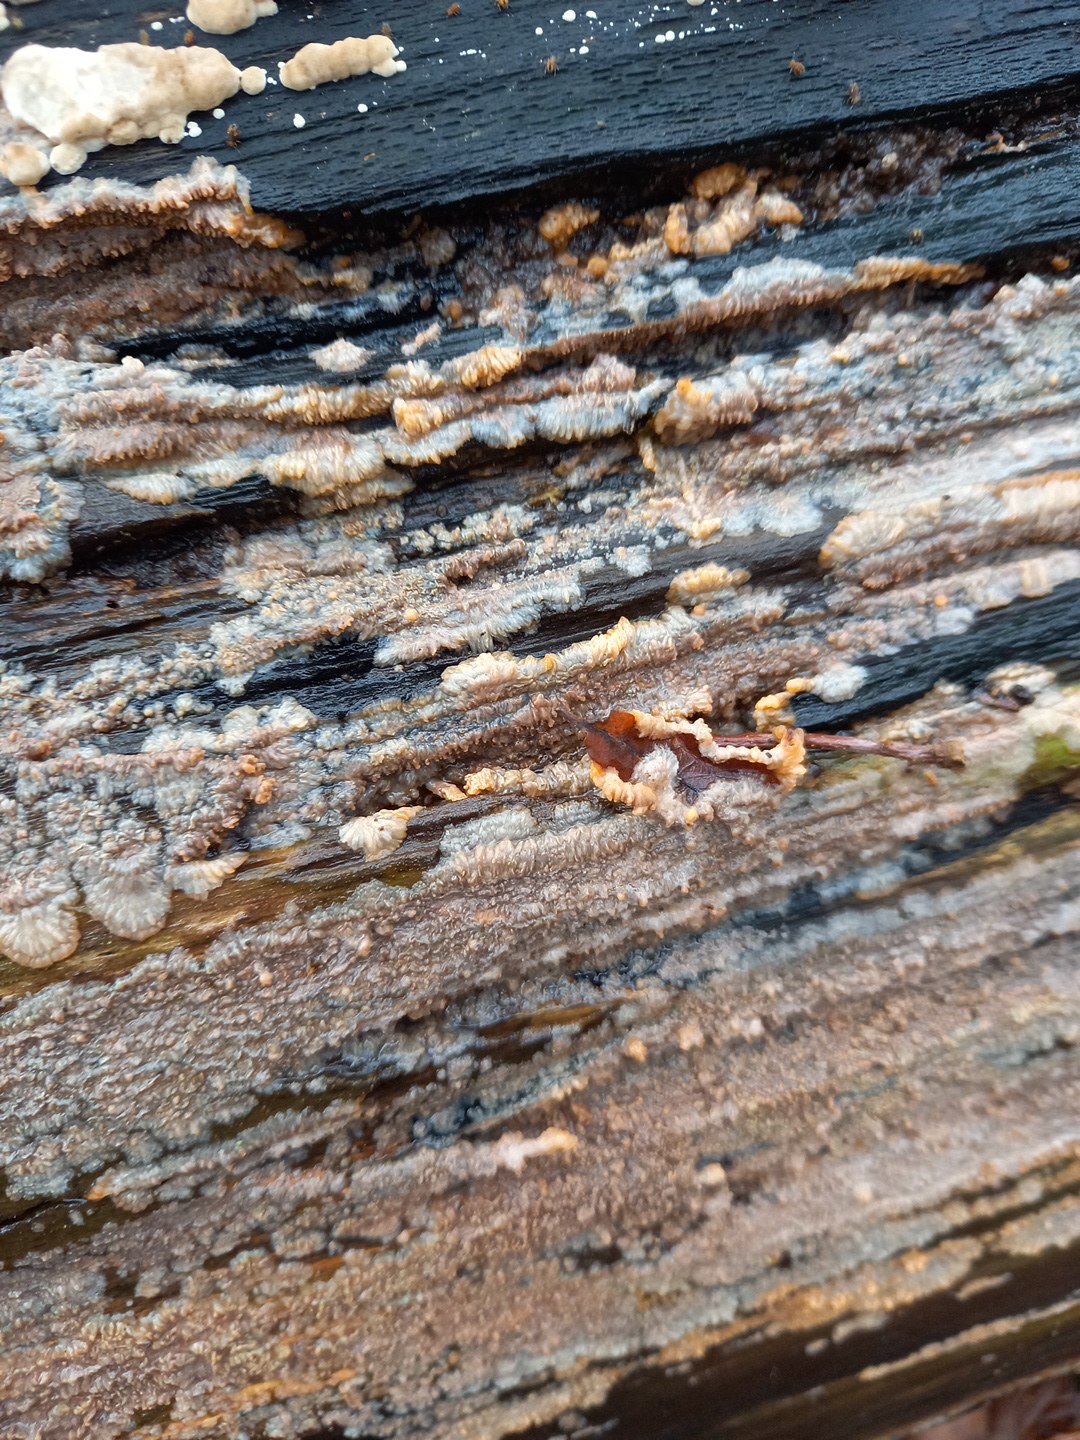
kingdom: Fungi
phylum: Basidiomycota
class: Agaricomycetes
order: Polyporales
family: Meruliaceae
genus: Phlebia
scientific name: Phlebia radiata
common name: stråle-åresvamp
